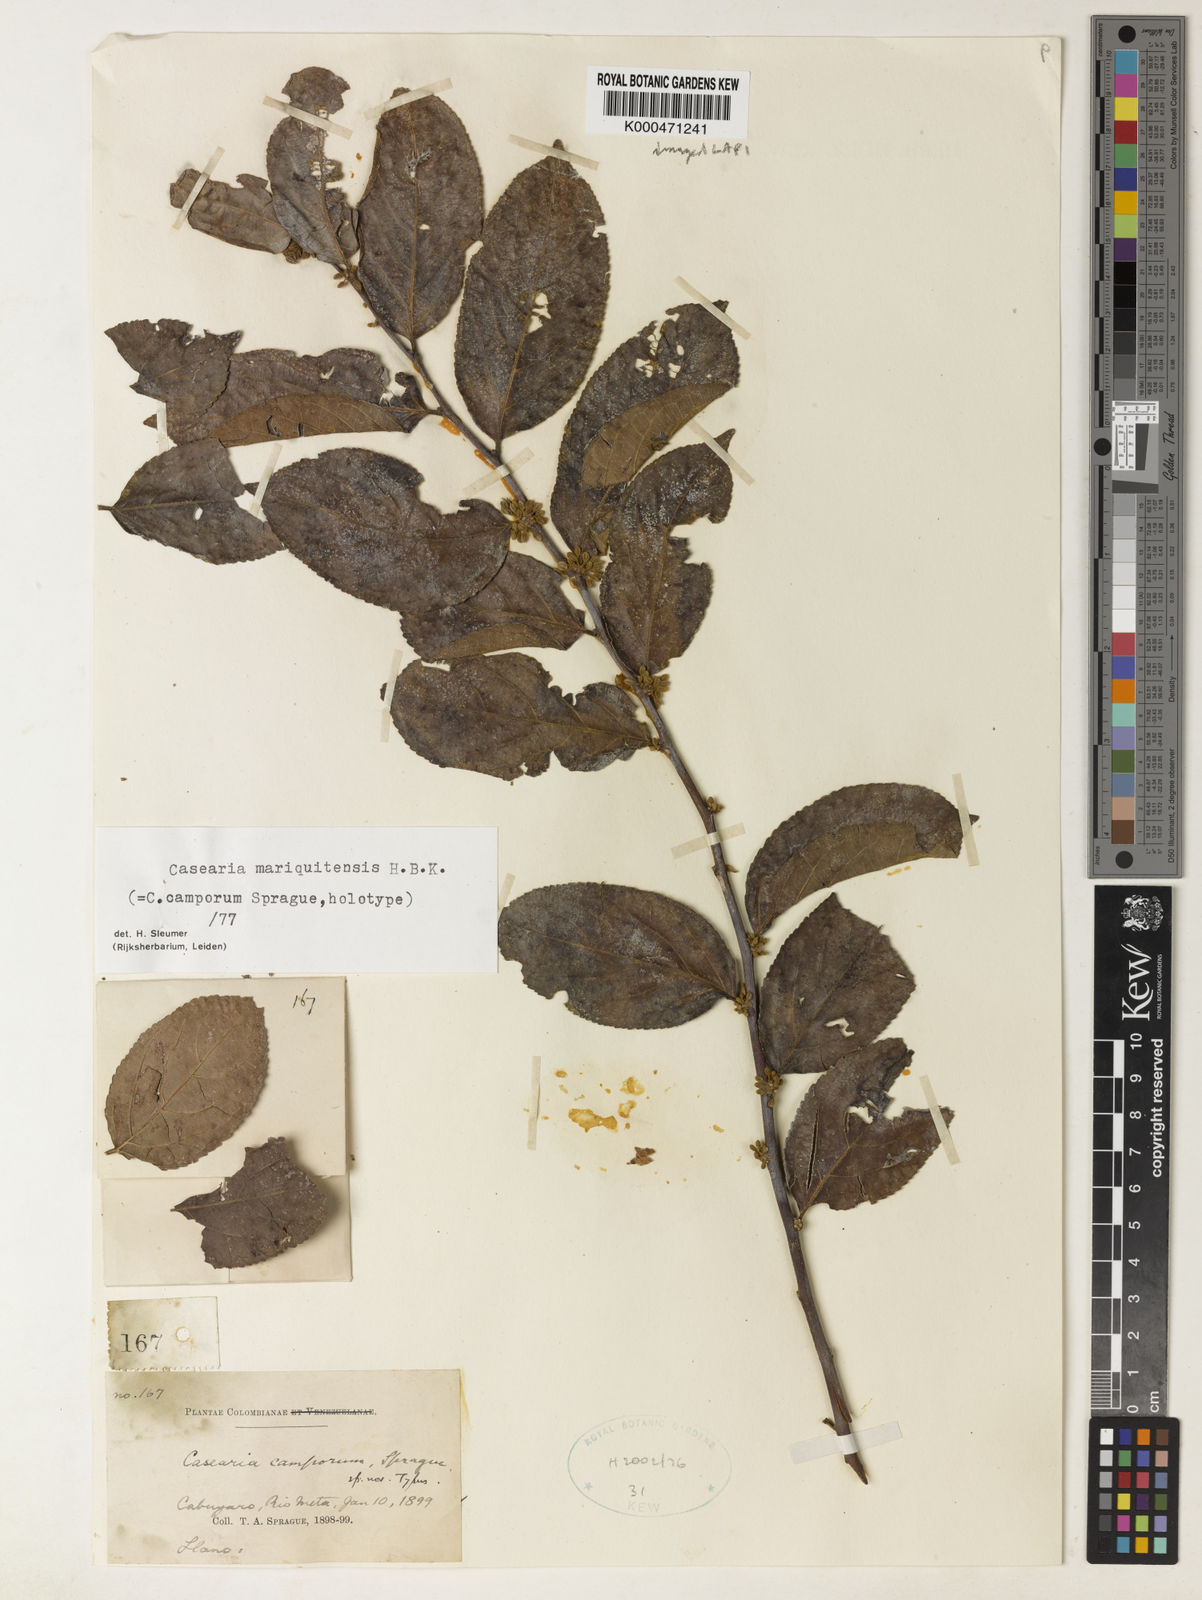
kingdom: Plantae
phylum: Tracheophyta
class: Magnoliopsida
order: Malpighiales
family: Salicaceae
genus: Casearia
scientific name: Casearia mariquitensis
